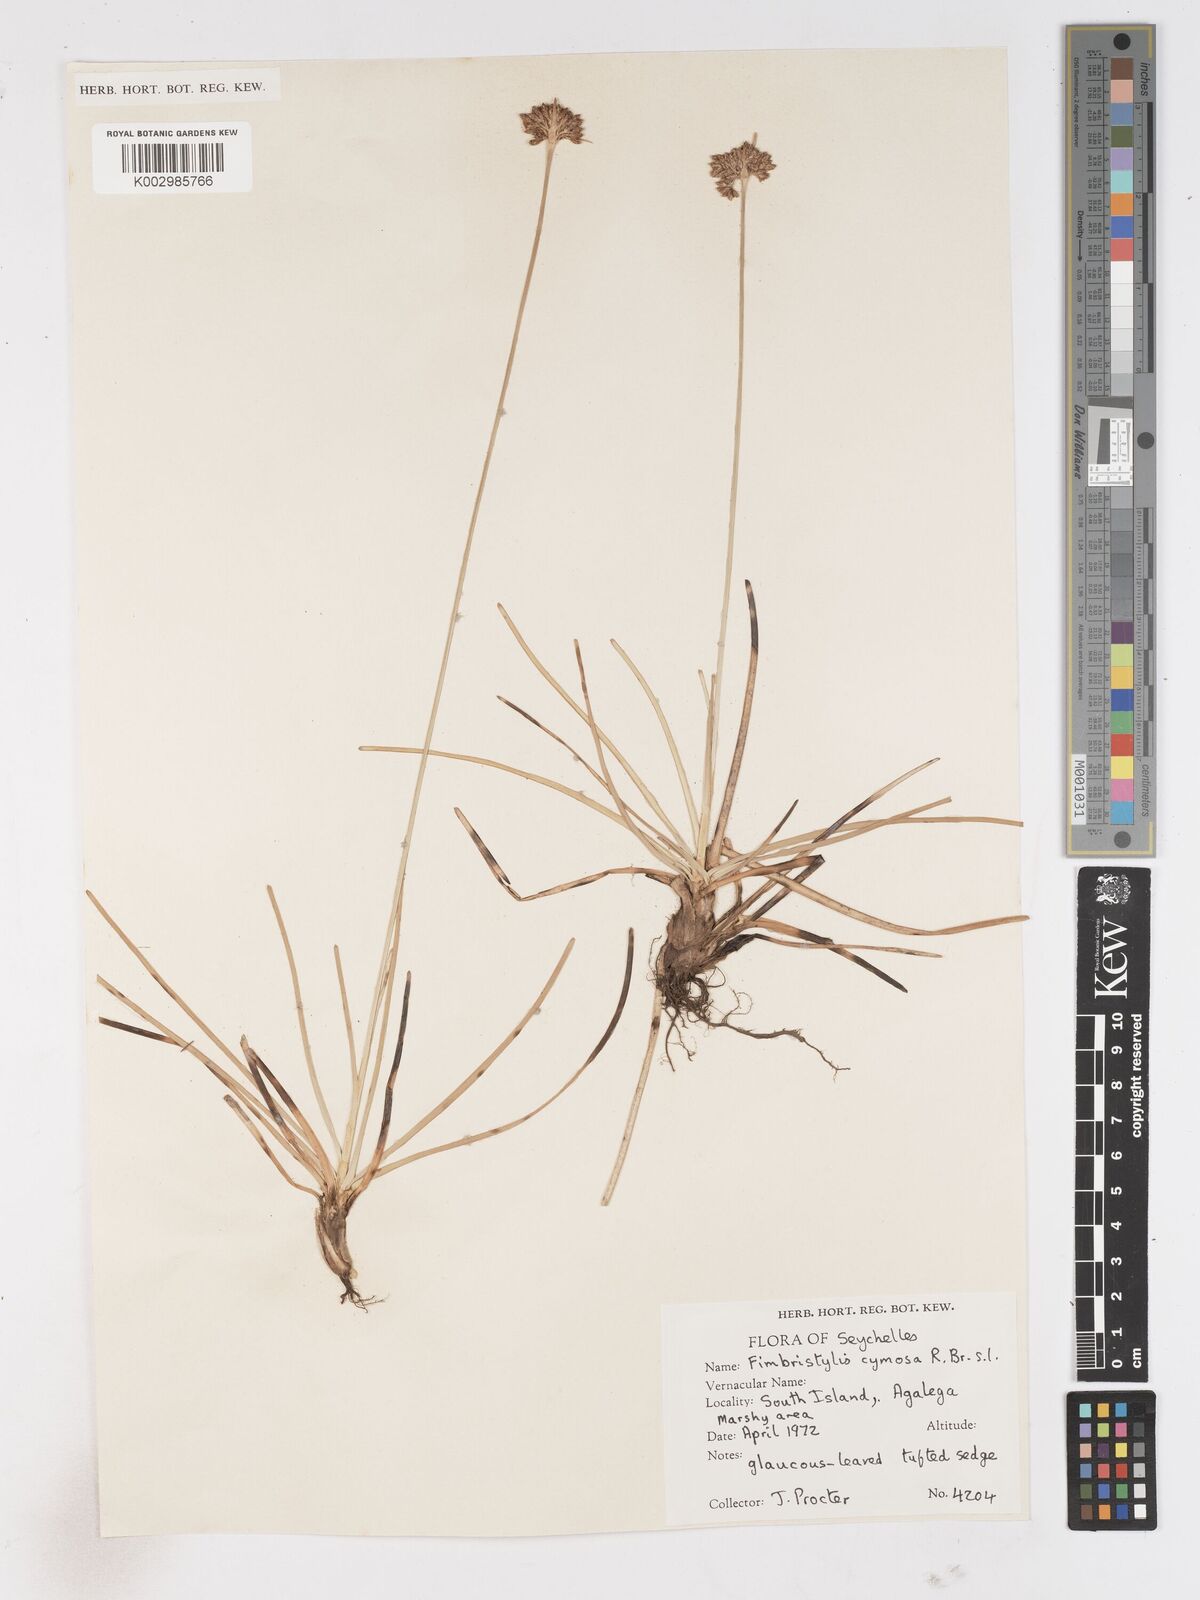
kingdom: Plantae
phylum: Tracheophyta
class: Liliopsida
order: Poales
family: Cyperaceae
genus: Fimbristylis
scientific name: Fimbristylis cymosa
